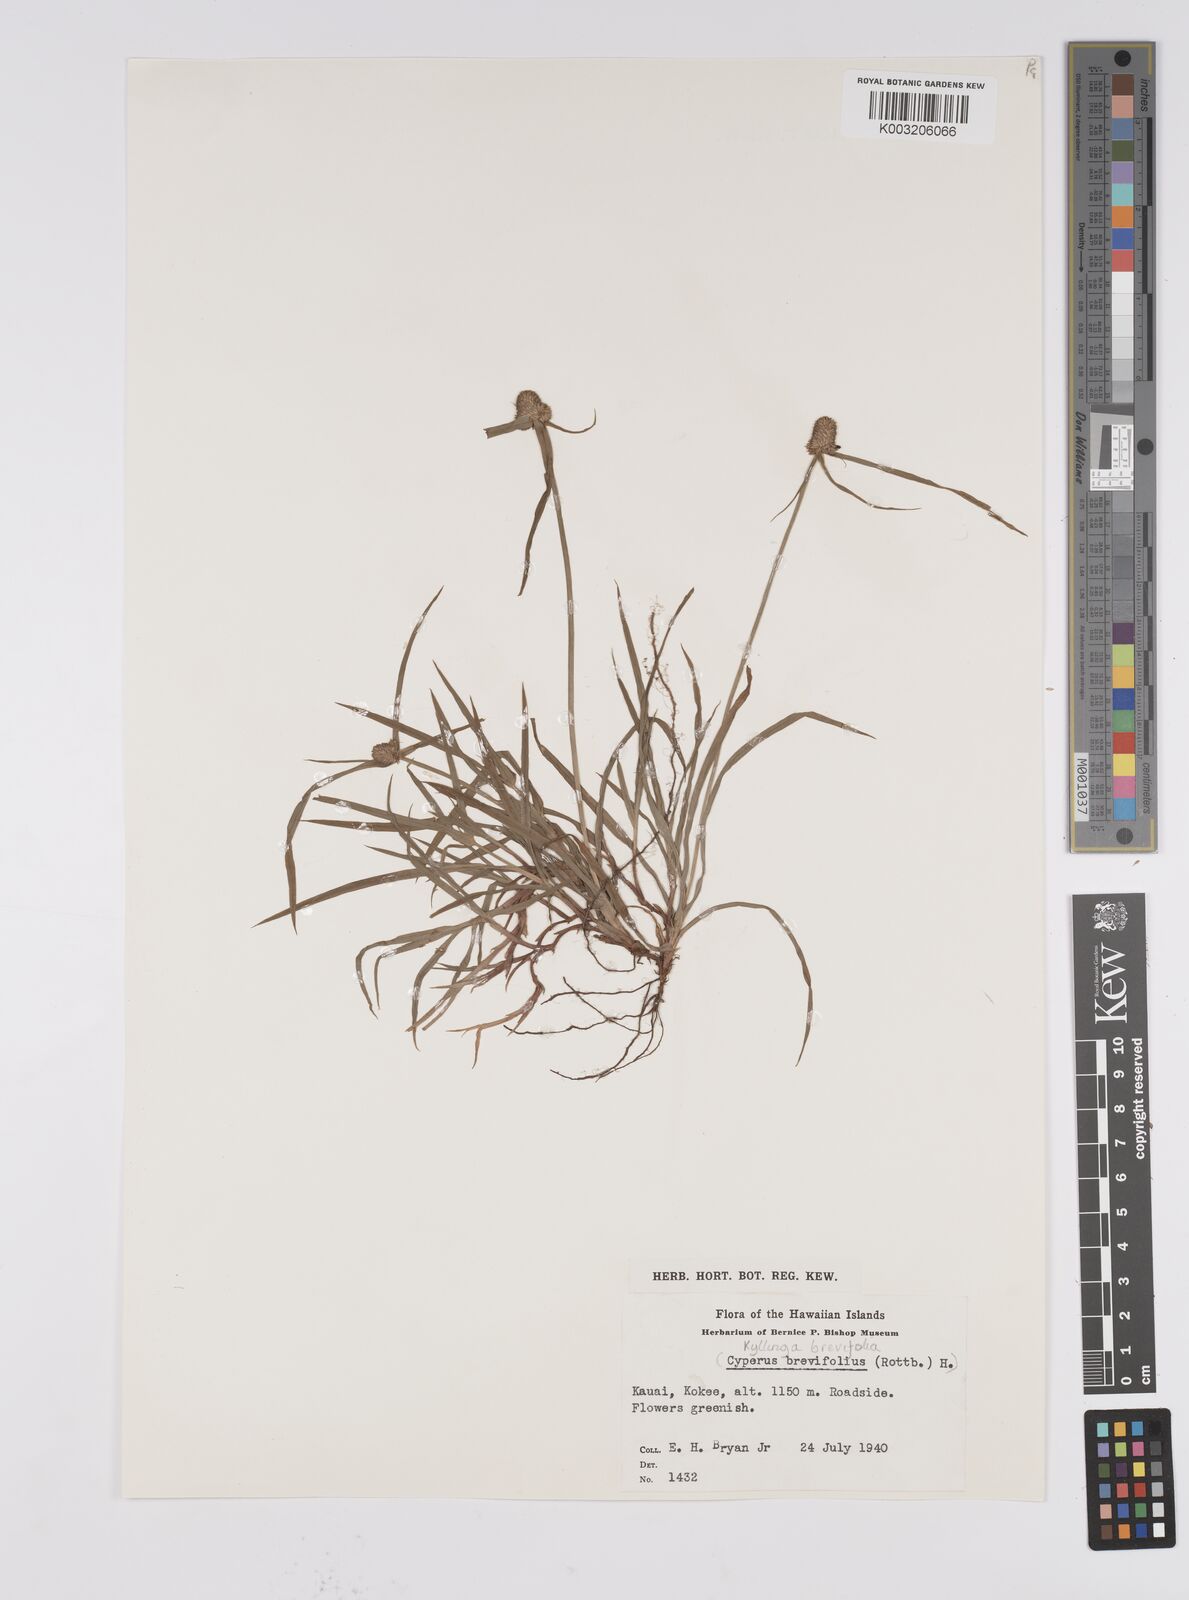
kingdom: Plantae
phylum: Tracheophyta
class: Liliopsida
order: Poales
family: Cyperaceae
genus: Cyperus
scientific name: Cyperus brevifolius
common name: Globe kyllinga
